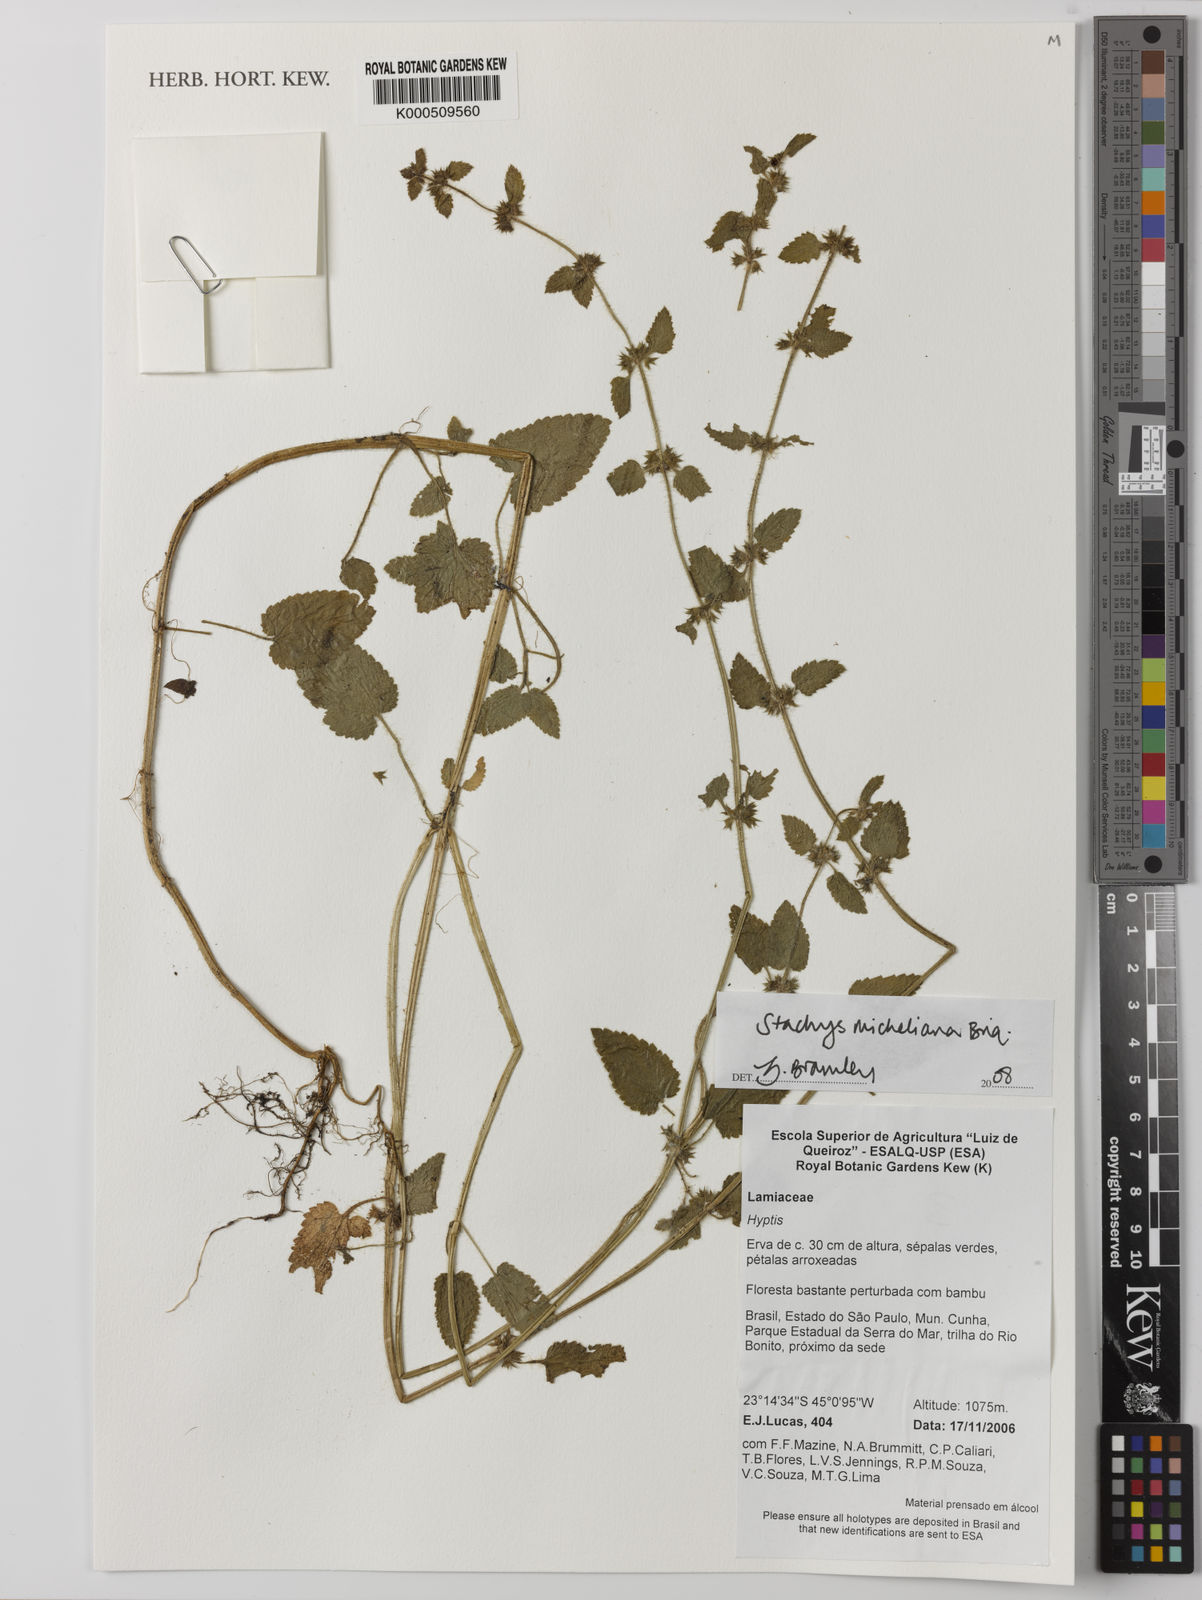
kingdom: Plantae
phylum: Tracheophyta
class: Magnoliopsida
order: Lamiales
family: Lamiaceae
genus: Stachys
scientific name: Stachys gilliesii
